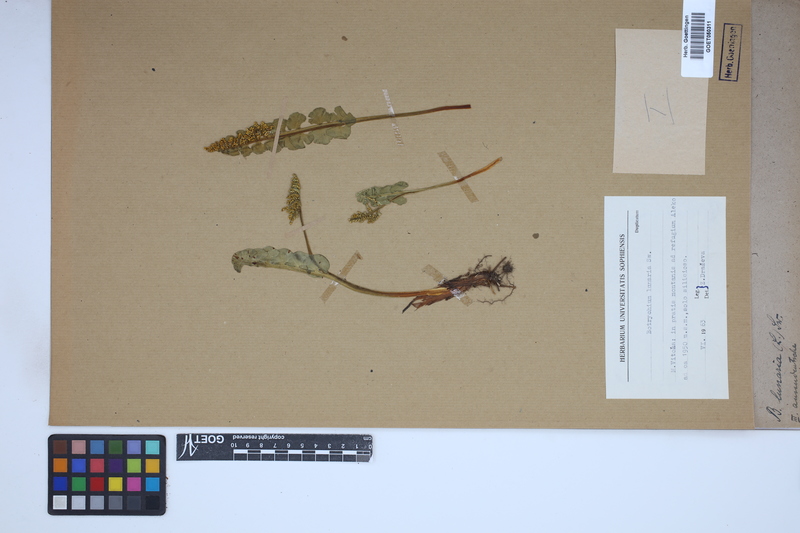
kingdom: Plantae
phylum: Tracheophyta
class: Polypodiopsida
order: Ophioglossales
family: Ophioglossaceae
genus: Botrychium
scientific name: Botrychium lunaria
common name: Moonwort
